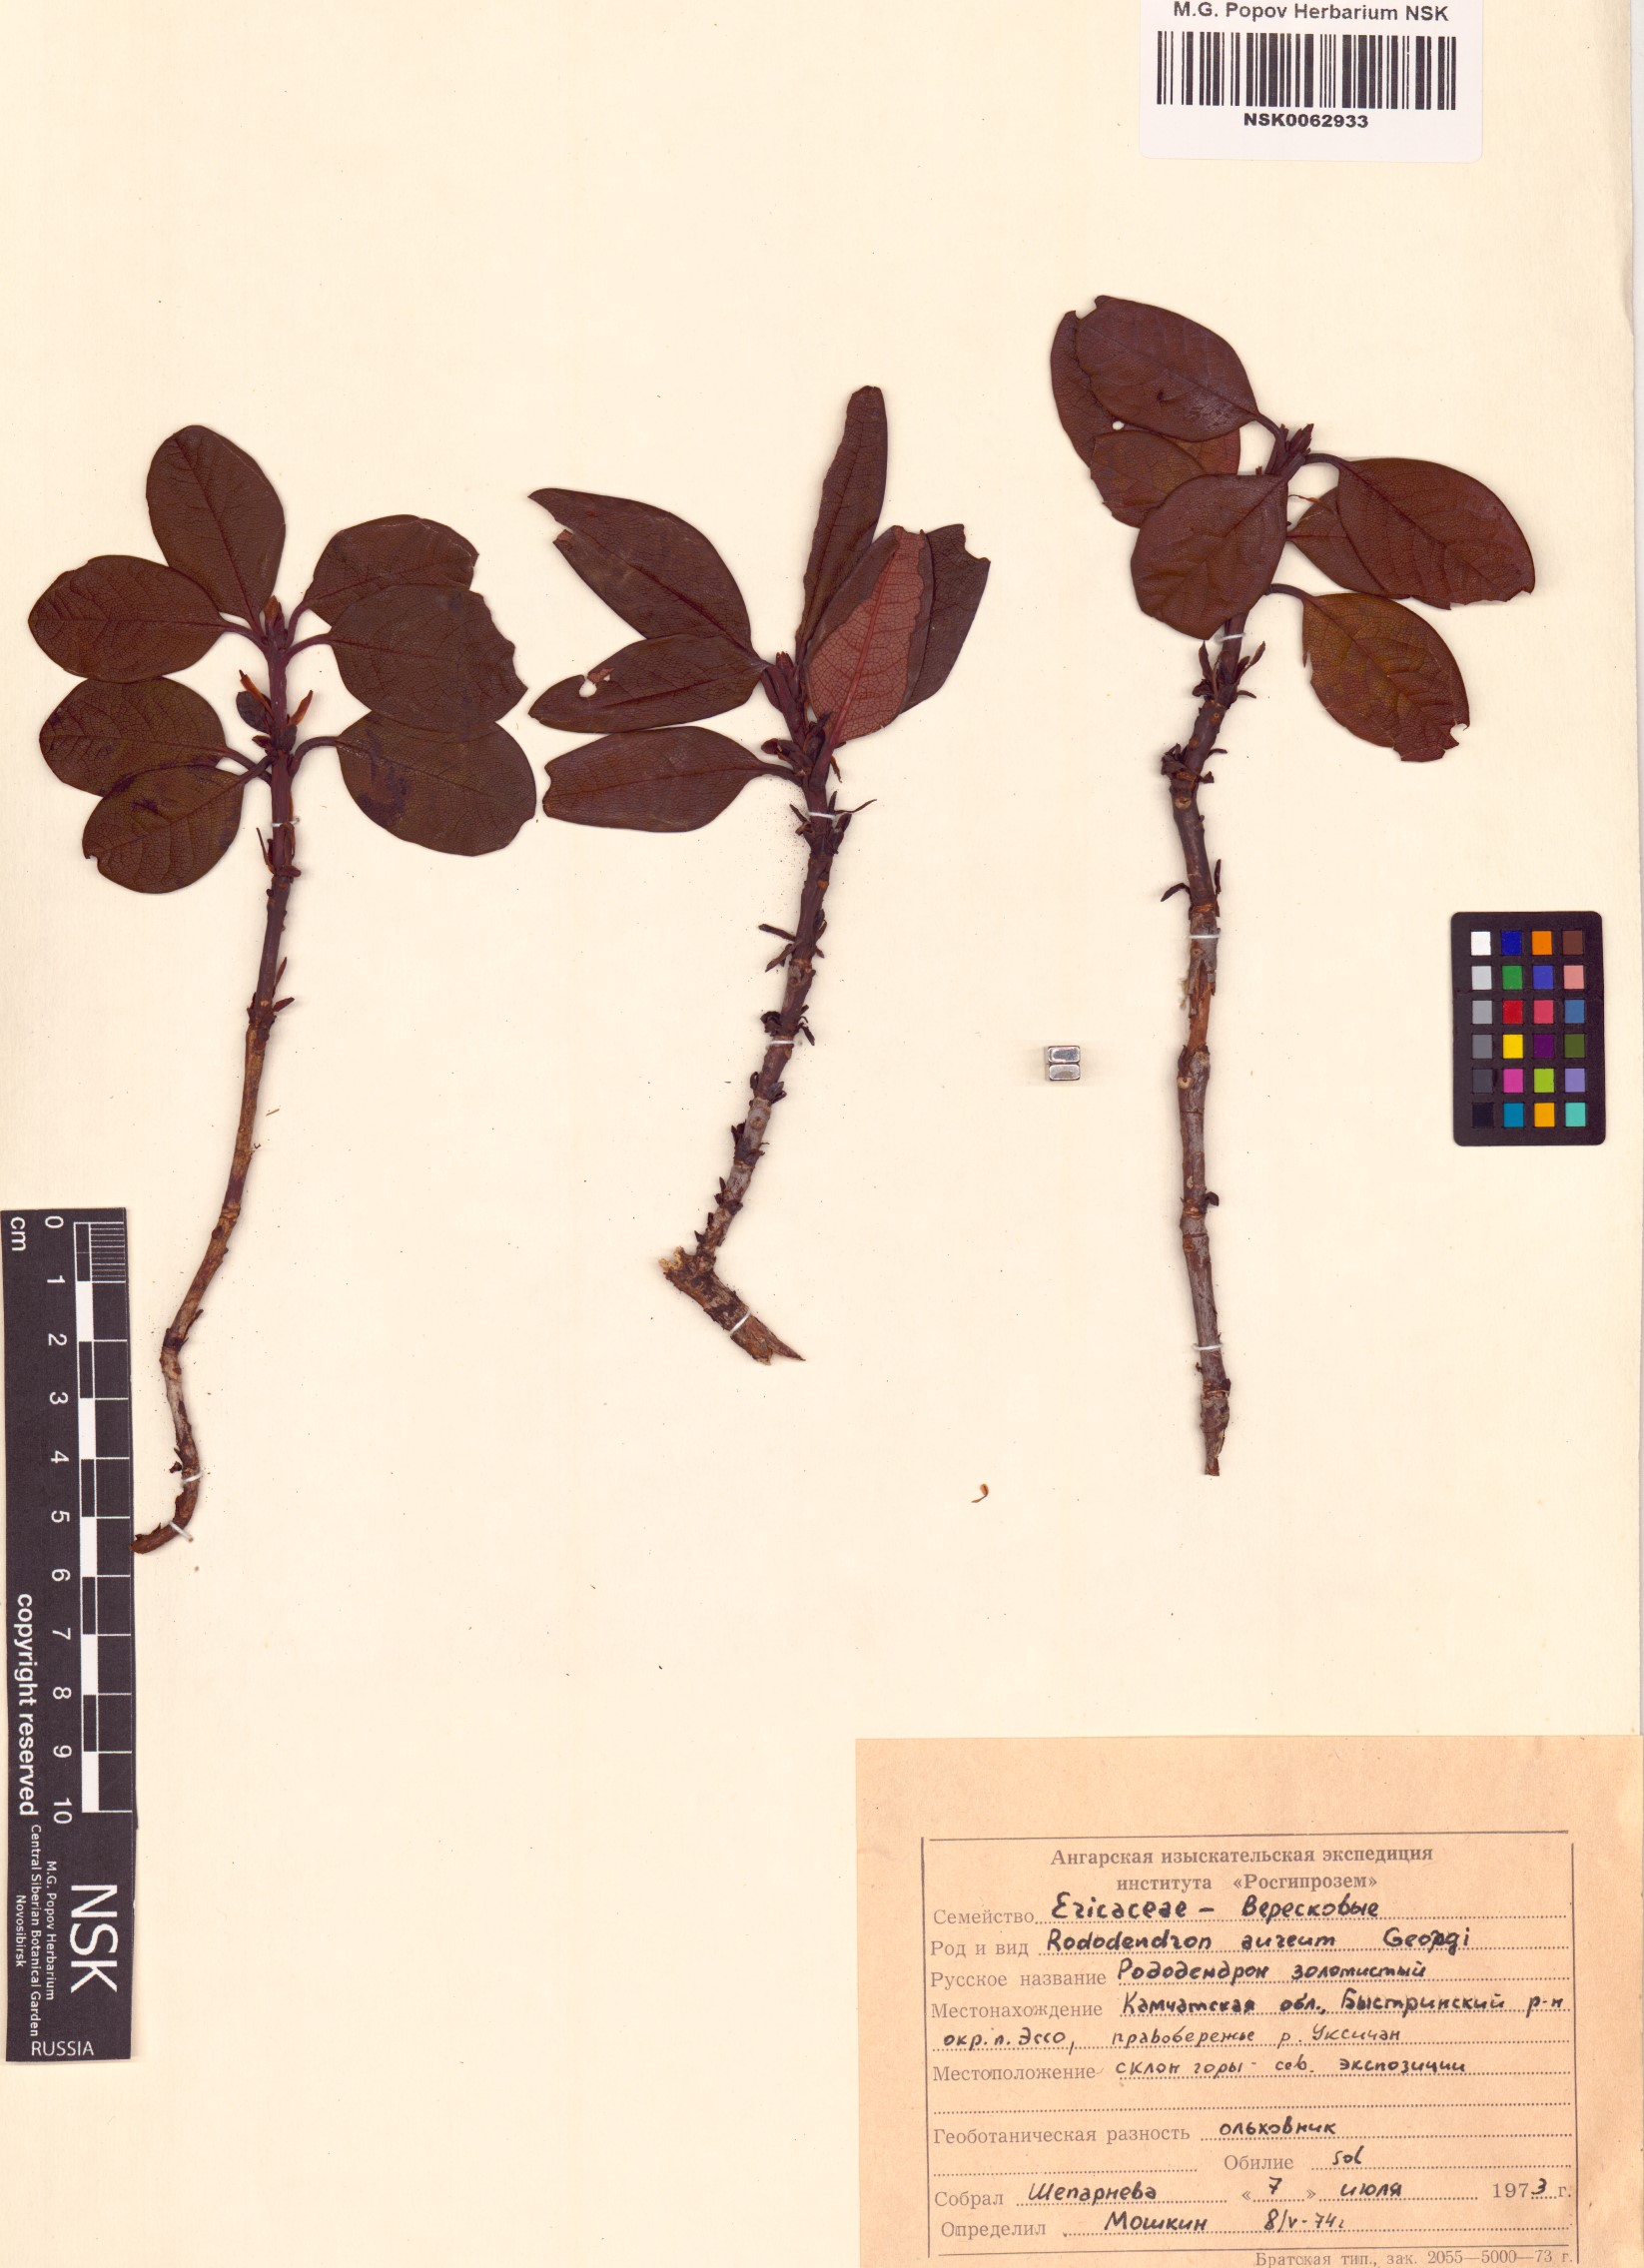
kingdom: Plantae
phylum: Tracheophyta
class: Magnoliopsida
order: Ericales
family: Ericaceae
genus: Rhododendron
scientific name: Rhododendron aureum
